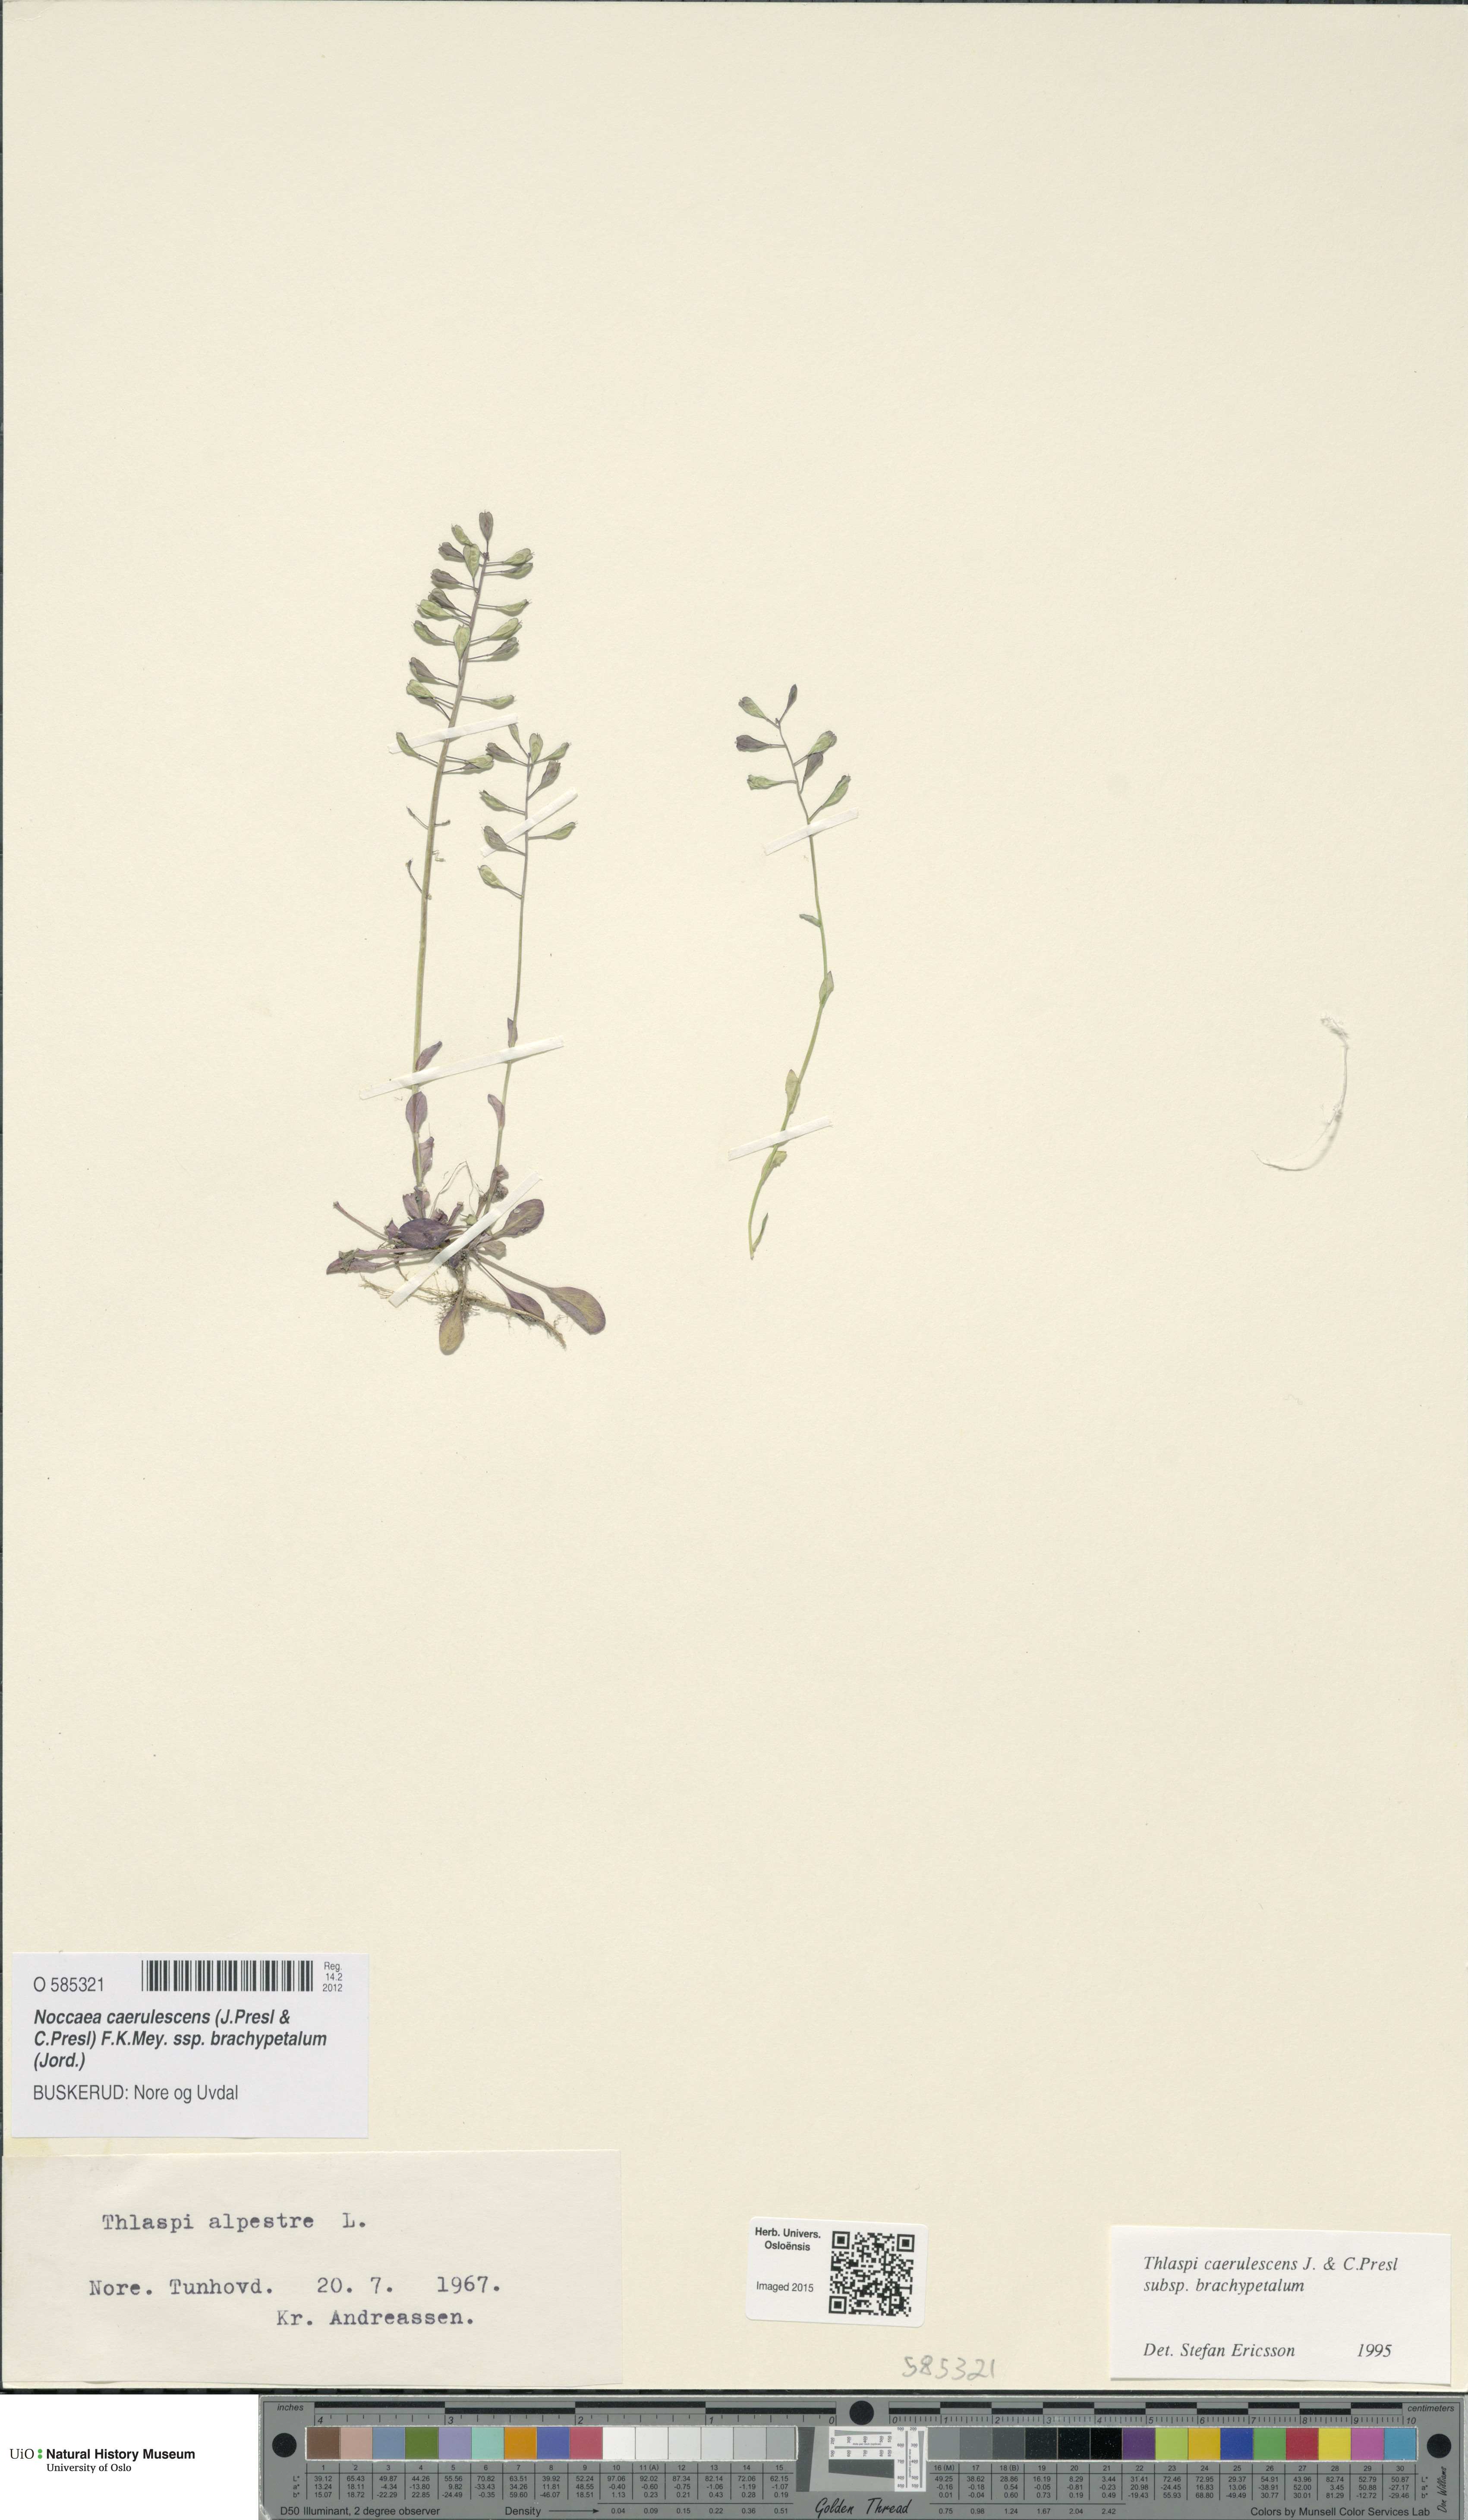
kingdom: Plantae
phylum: Tracheophyta
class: Magnoliopsida
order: Brassicales
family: Brassicaceae
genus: Noccaea
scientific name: Noccaea brachypetala
